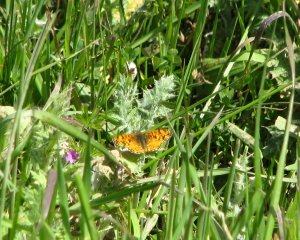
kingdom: Animalia
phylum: Arthropoda
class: Insecta
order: Lepidoptera
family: Nymphalidae
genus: Eresia
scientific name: Eresia aveyrona
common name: Mylitta Crescent
